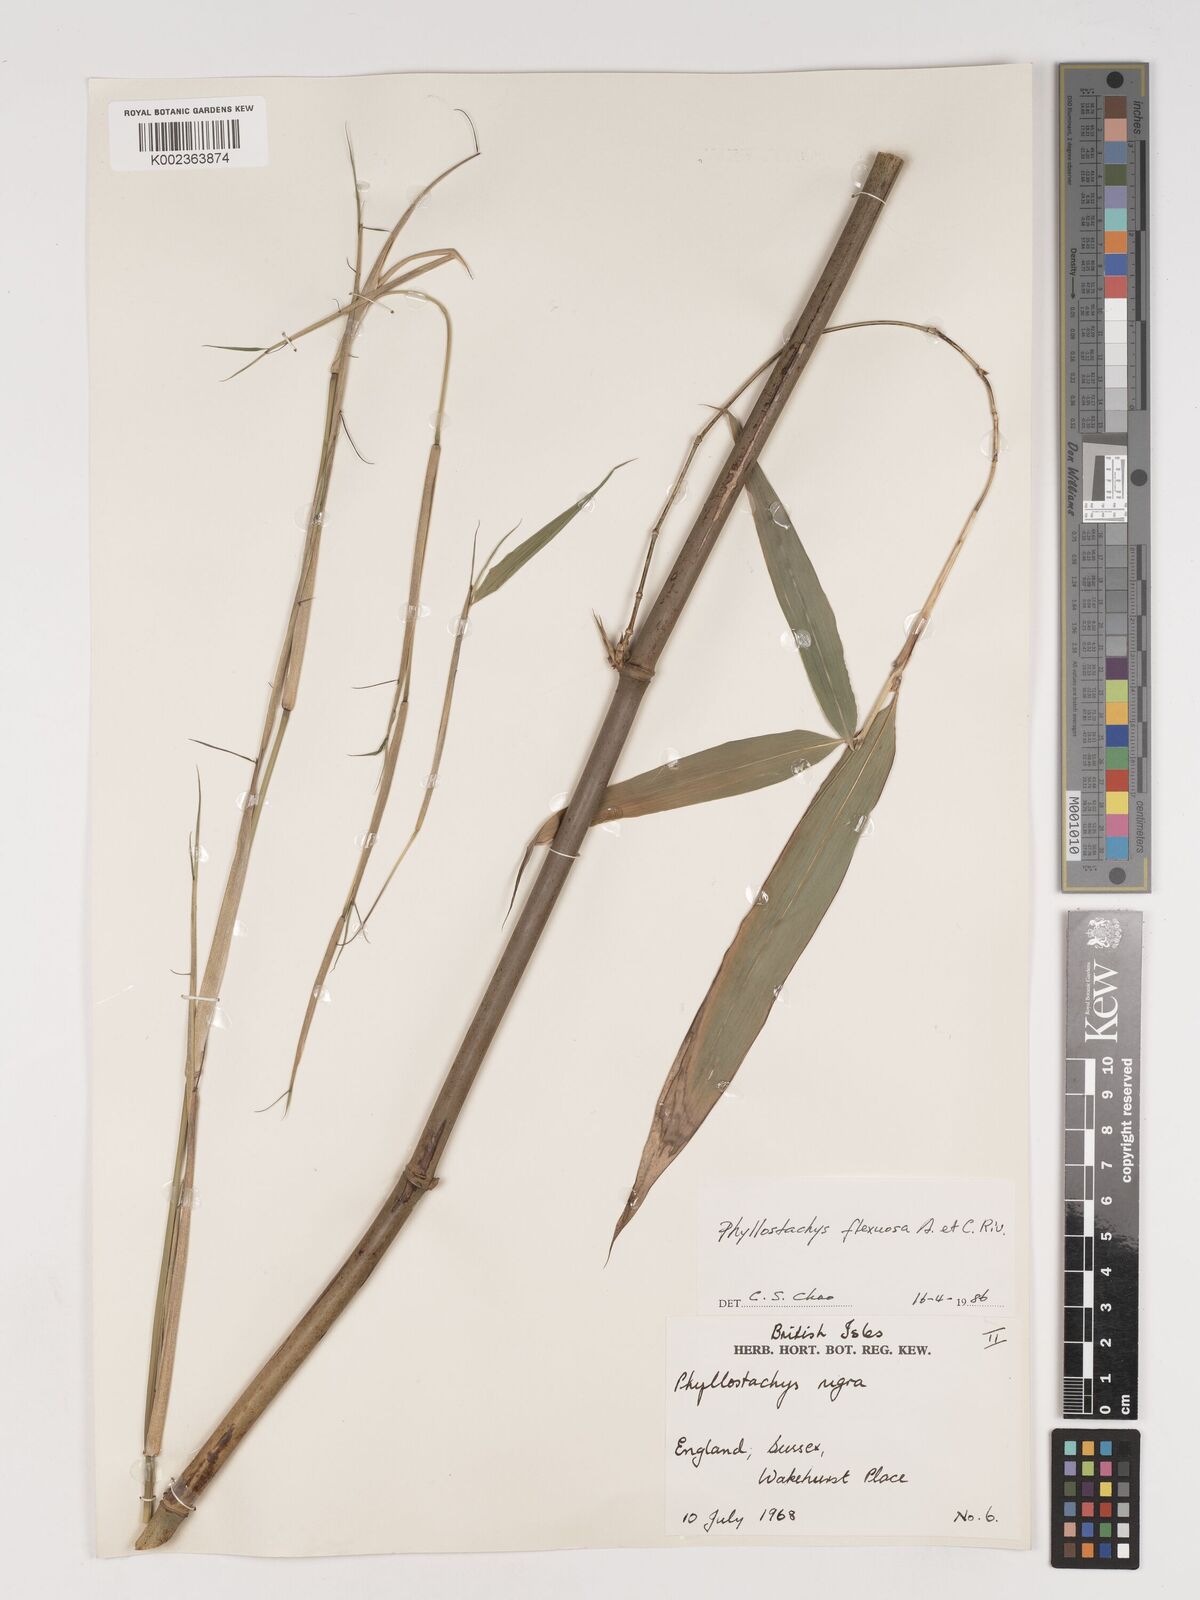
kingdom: Plantae
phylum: Tracheophyta
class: Liliopsida
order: Poales
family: Poaceae
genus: Phyllostachys
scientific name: Phyllostachys flexuosa
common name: Drooping timber bamboo
